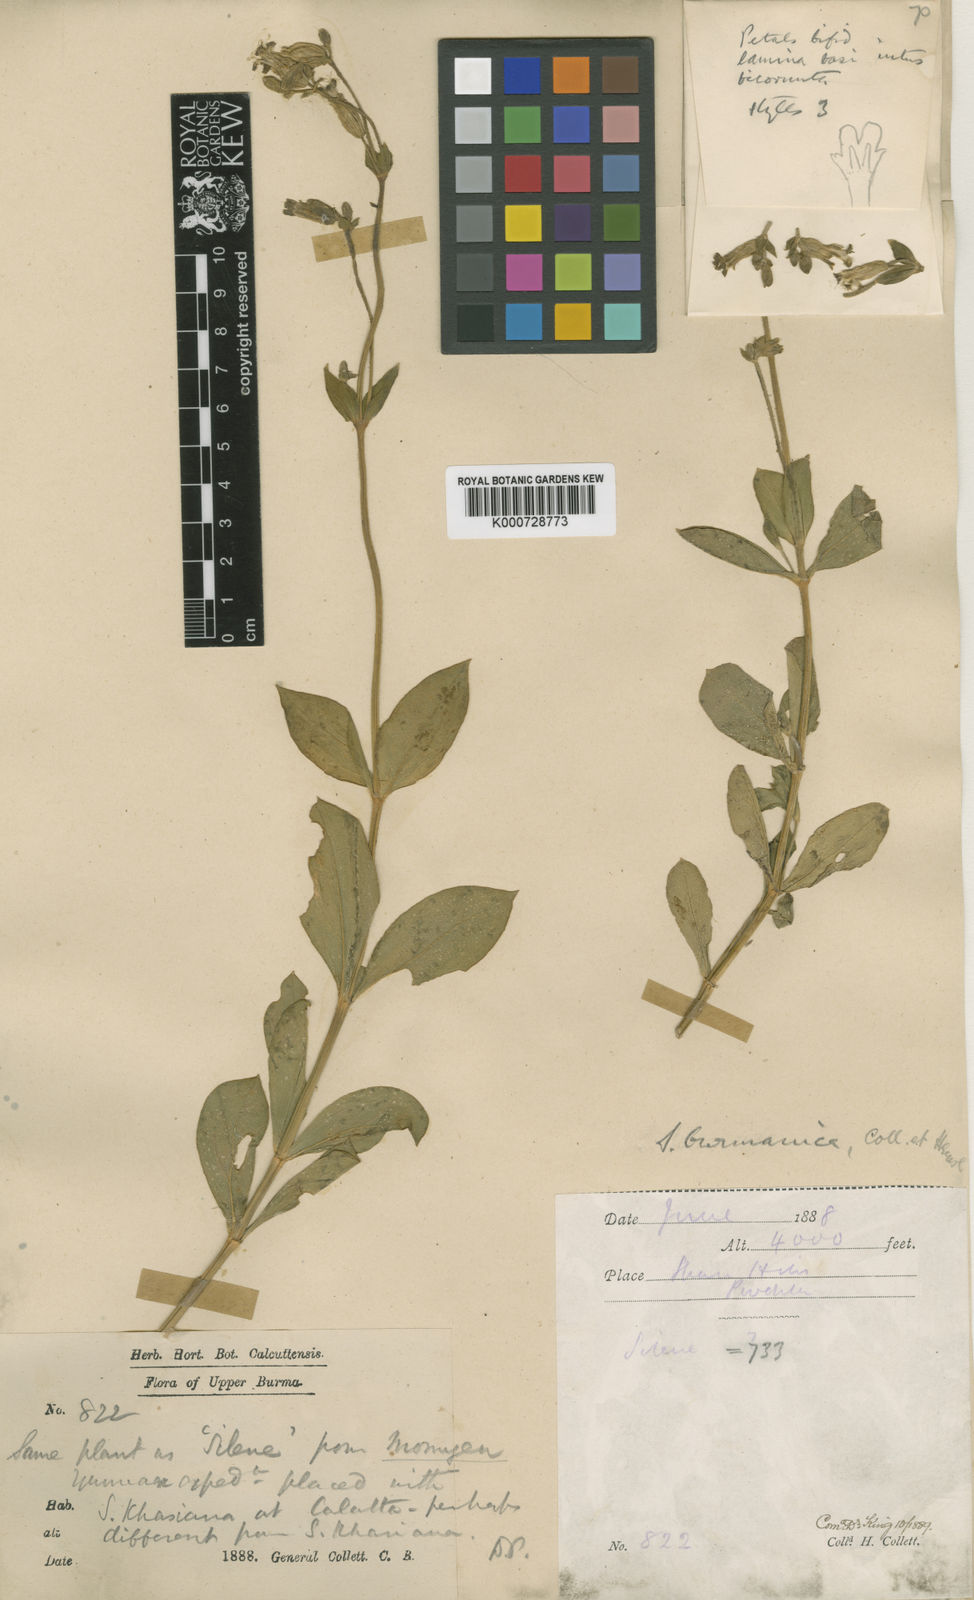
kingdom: Plantae
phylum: Tracheophyta
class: Magnoliopsida
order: Caryophyllales
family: Caryophyllaceae
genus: Silene
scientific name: Silene burmanica
